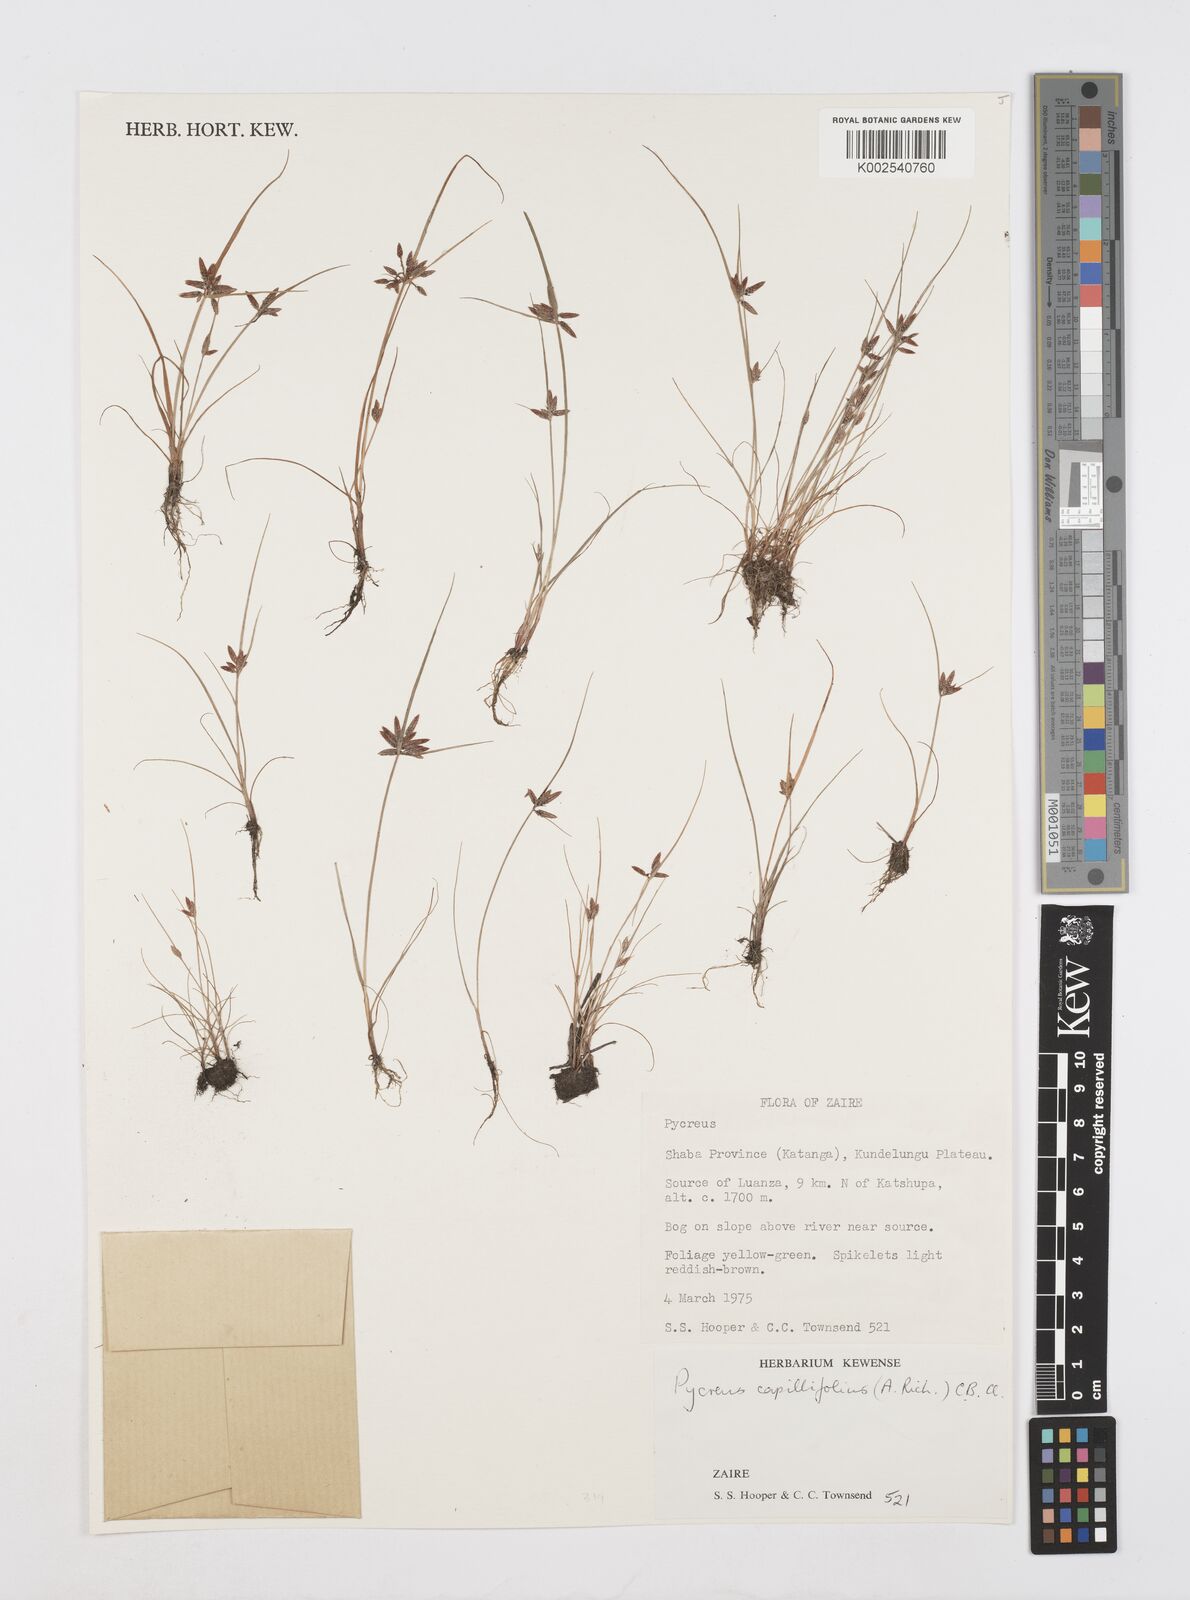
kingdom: Plantae
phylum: Tracheophyta
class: Liliopsida
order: Poales
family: Cyperaceae
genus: Cyperus
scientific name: Cyperus capillifolius
